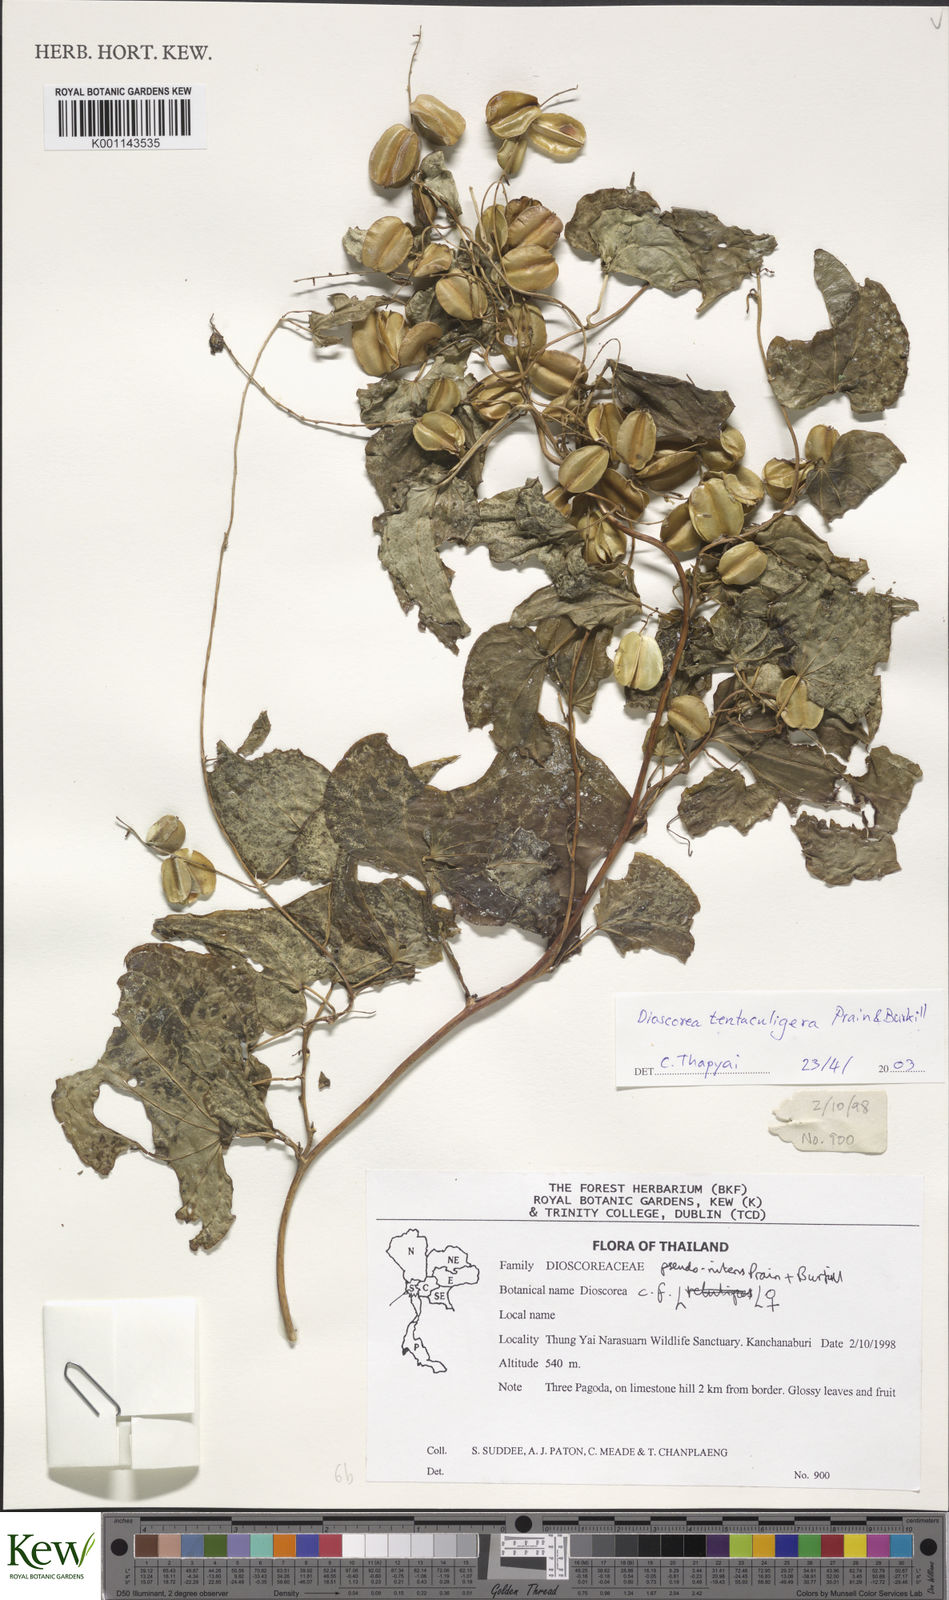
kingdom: Plantae
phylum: Tracheophyta
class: Liliopsida
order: Dioscoreales
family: Dioscoreaceae
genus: Dioscorea
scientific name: Dioscorea tentaculigera
